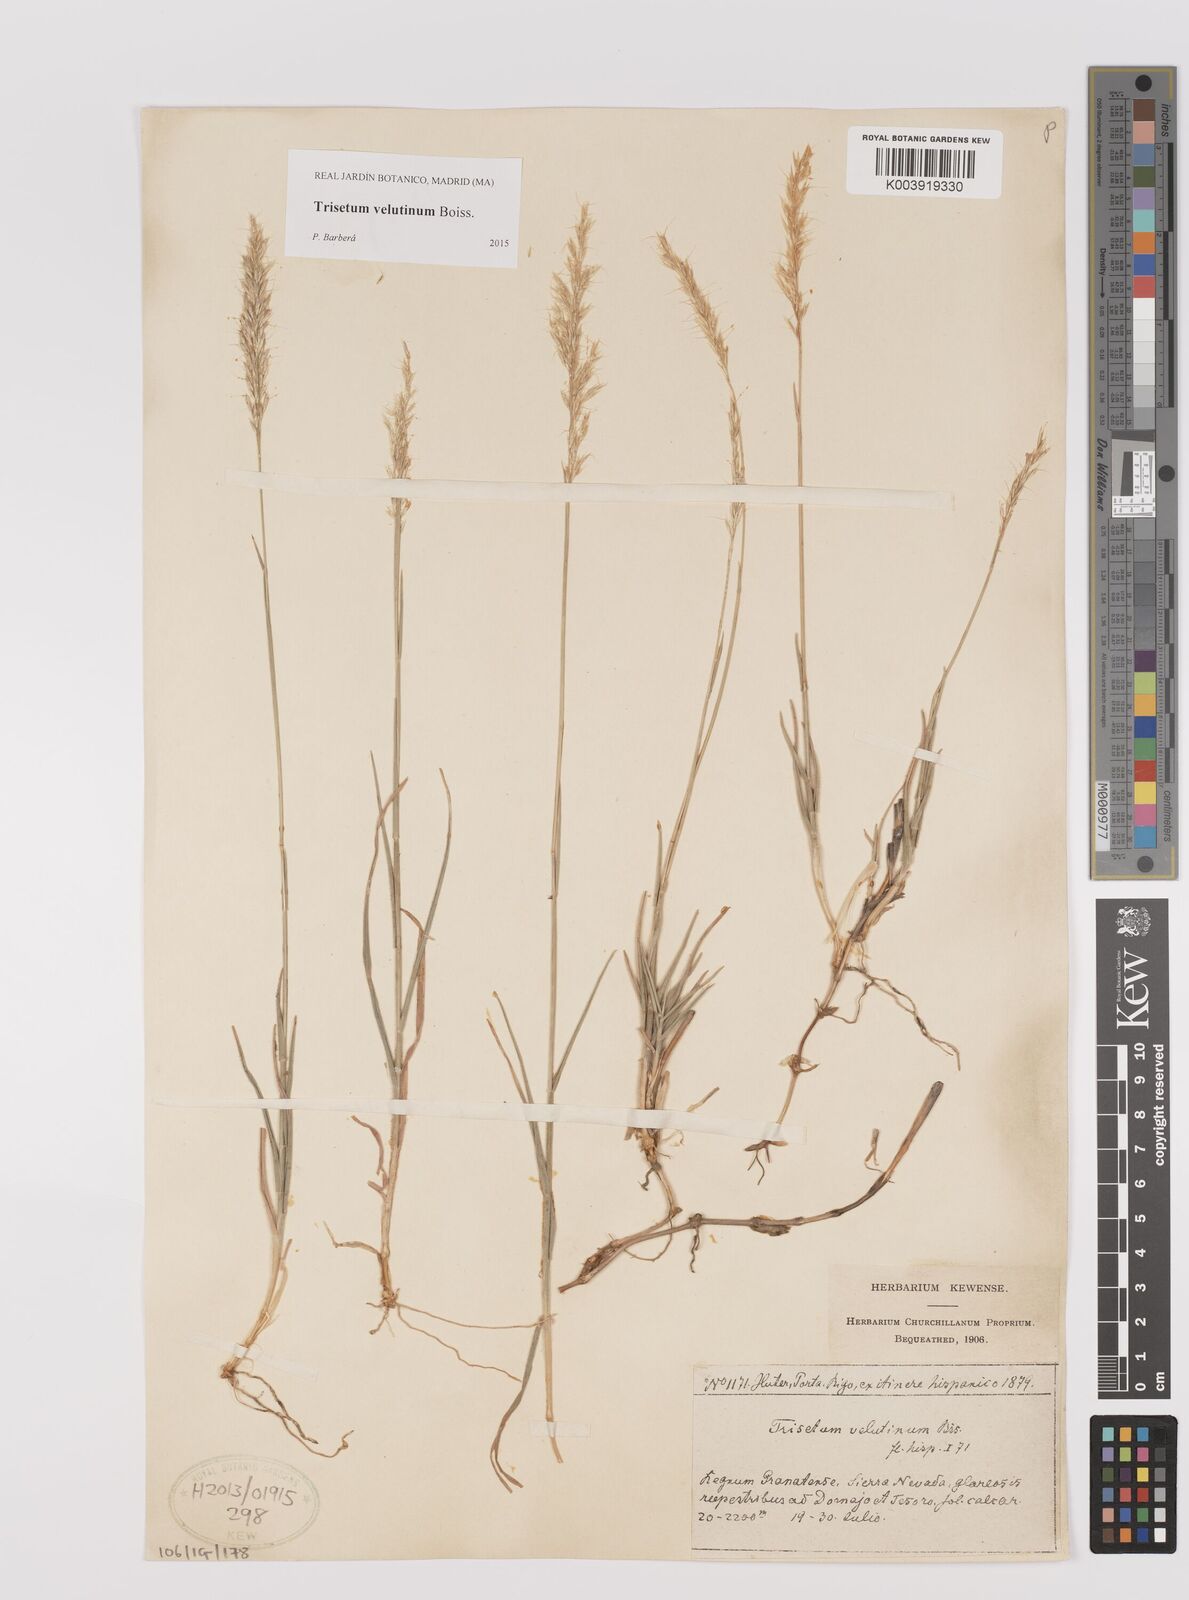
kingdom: Plantae
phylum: Tracheophyta
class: Liliopsida
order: Poales
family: Poaceae
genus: Trisetum
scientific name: Trisetum velutinum
